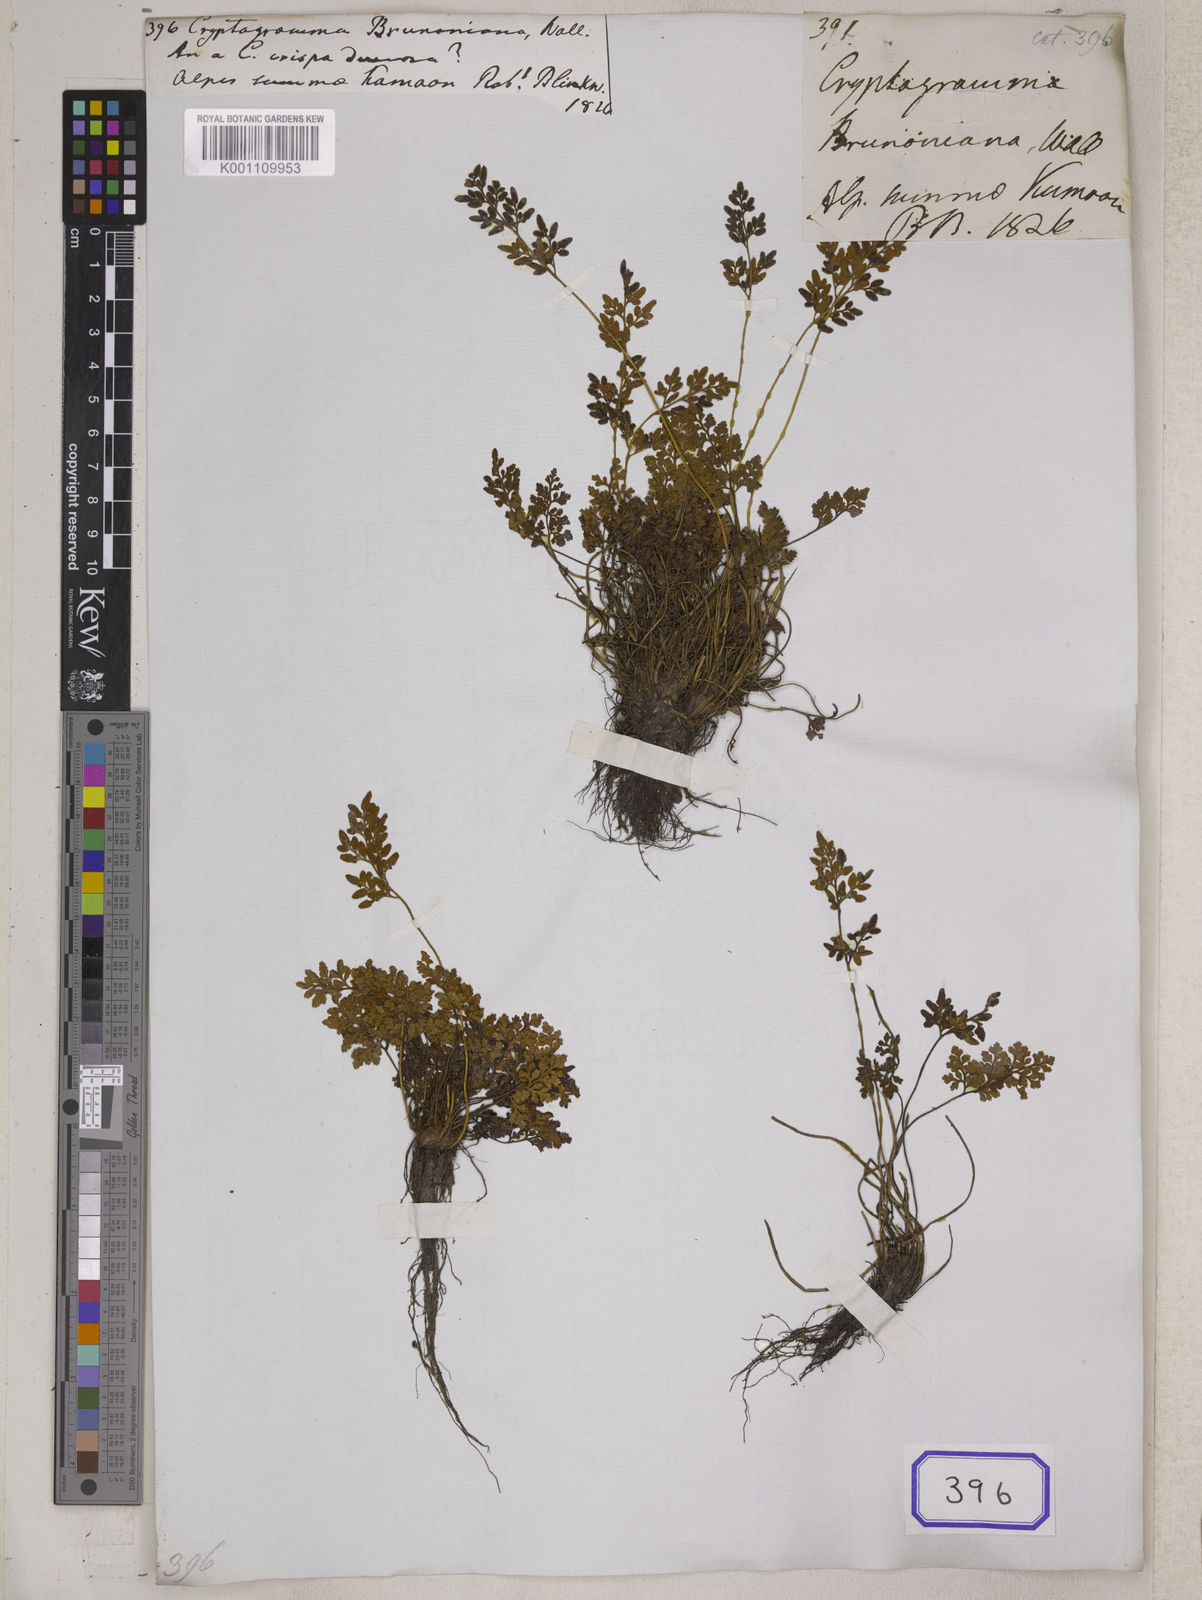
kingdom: Plantae
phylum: Tracheophyta
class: Polypodiopsida
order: Polypodiales
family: Pteridaceae
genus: Cryptogramma
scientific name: Cryptogramma
